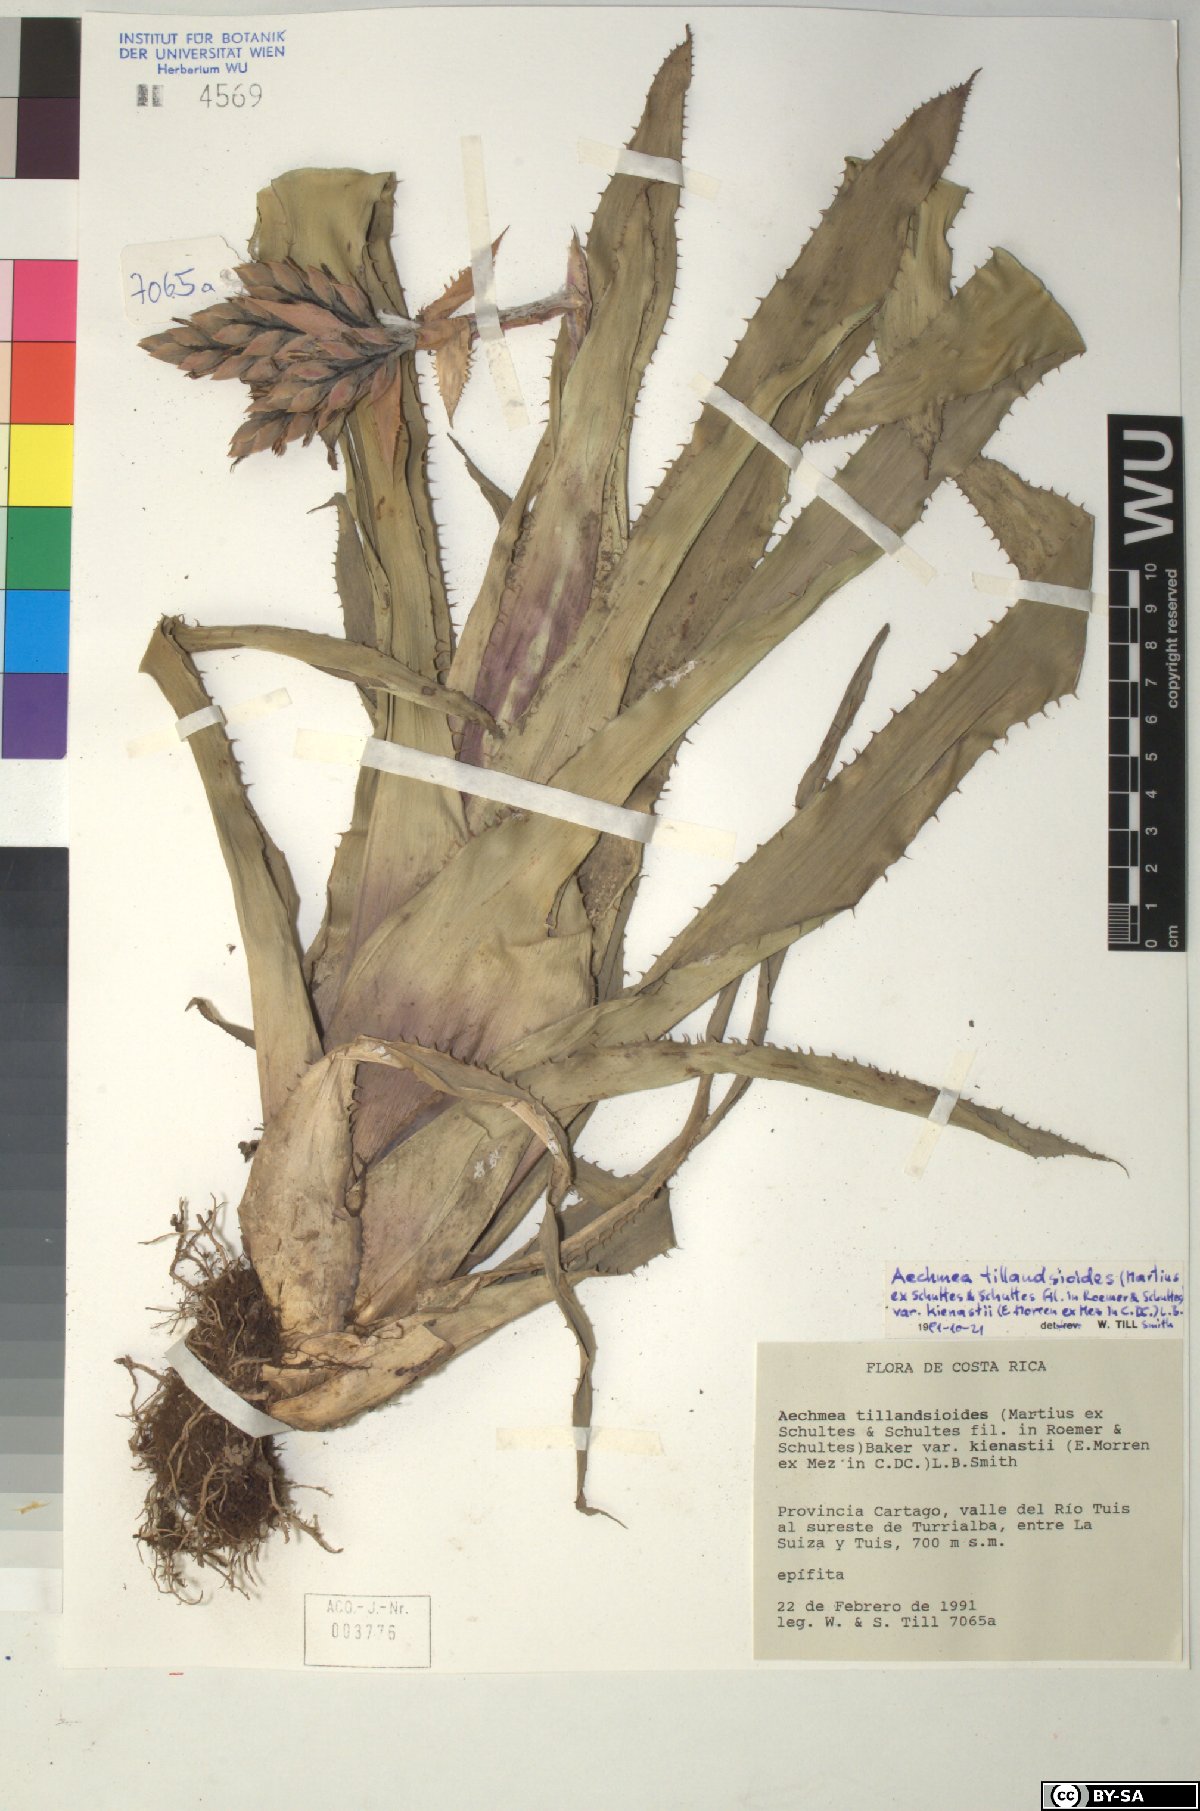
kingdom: Plantae
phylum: Tracheophyta
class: Liliopsida
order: Poales
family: Bromeliaceae
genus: Aechmea
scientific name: Aechmea tillandsioides
